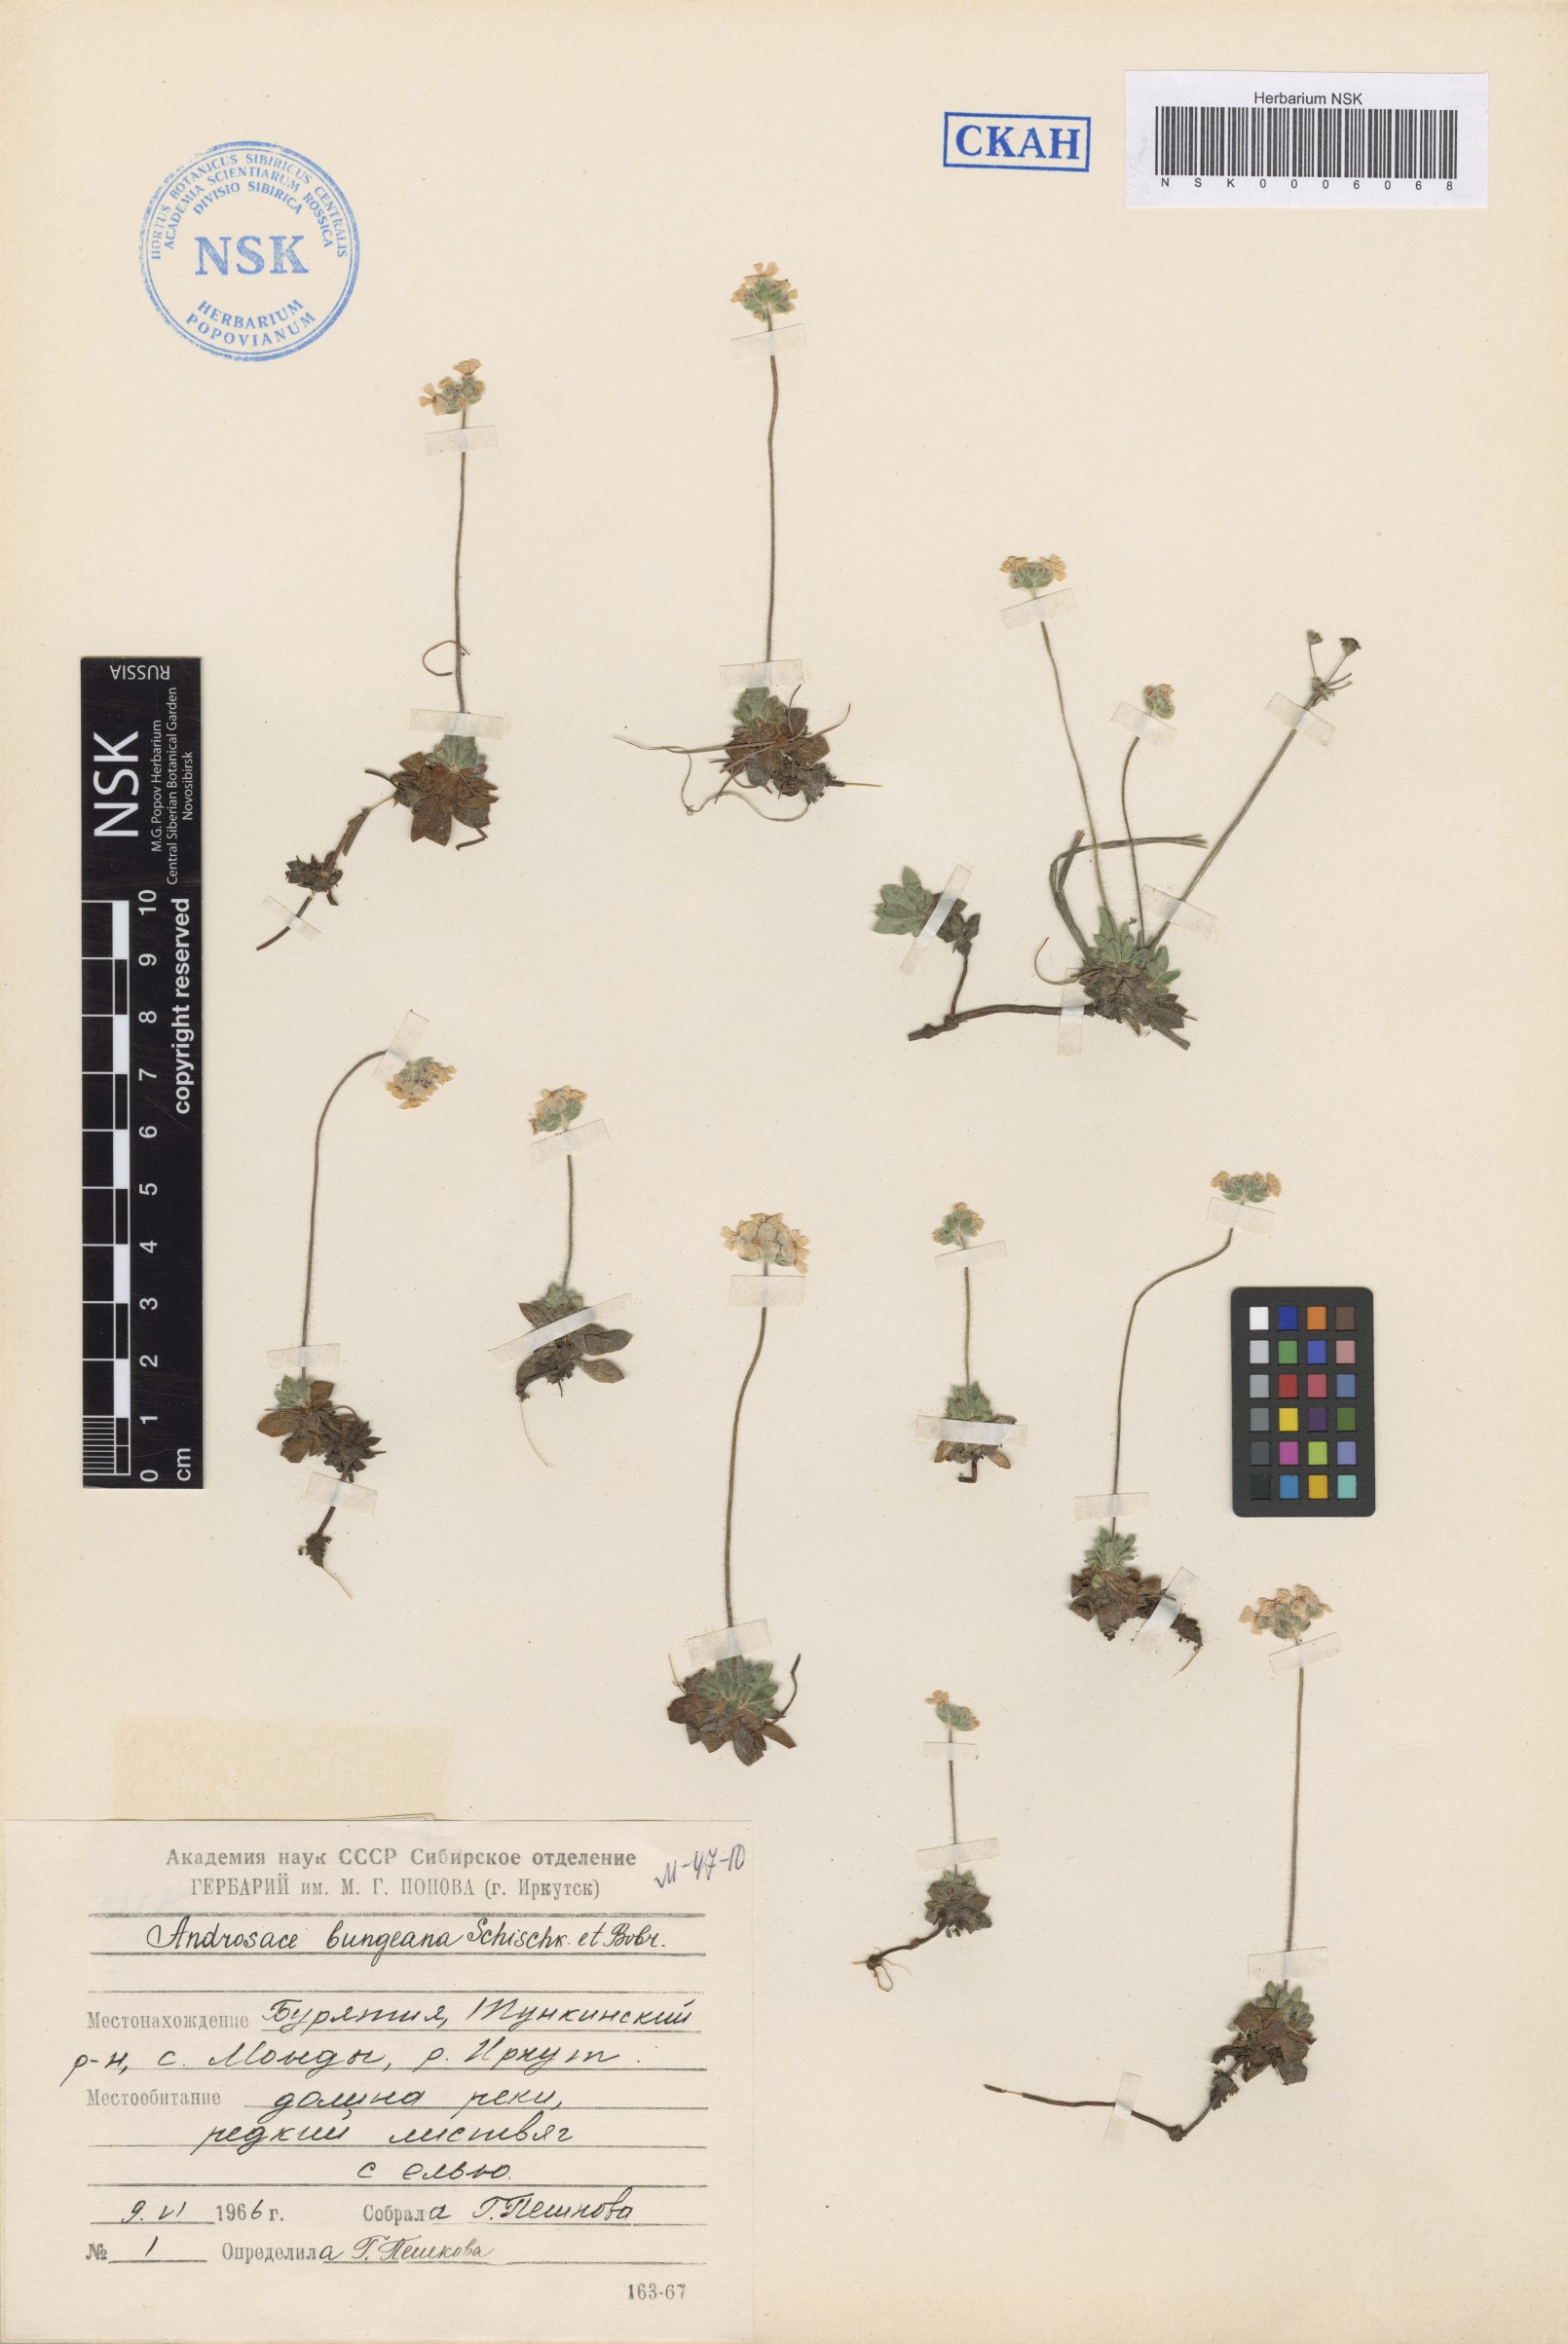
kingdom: Plantae
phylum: Tracheophyta
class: Magnoliopsida
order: Ericales
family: Primulaceae
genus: Androsace
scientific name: Androsace bungeana
